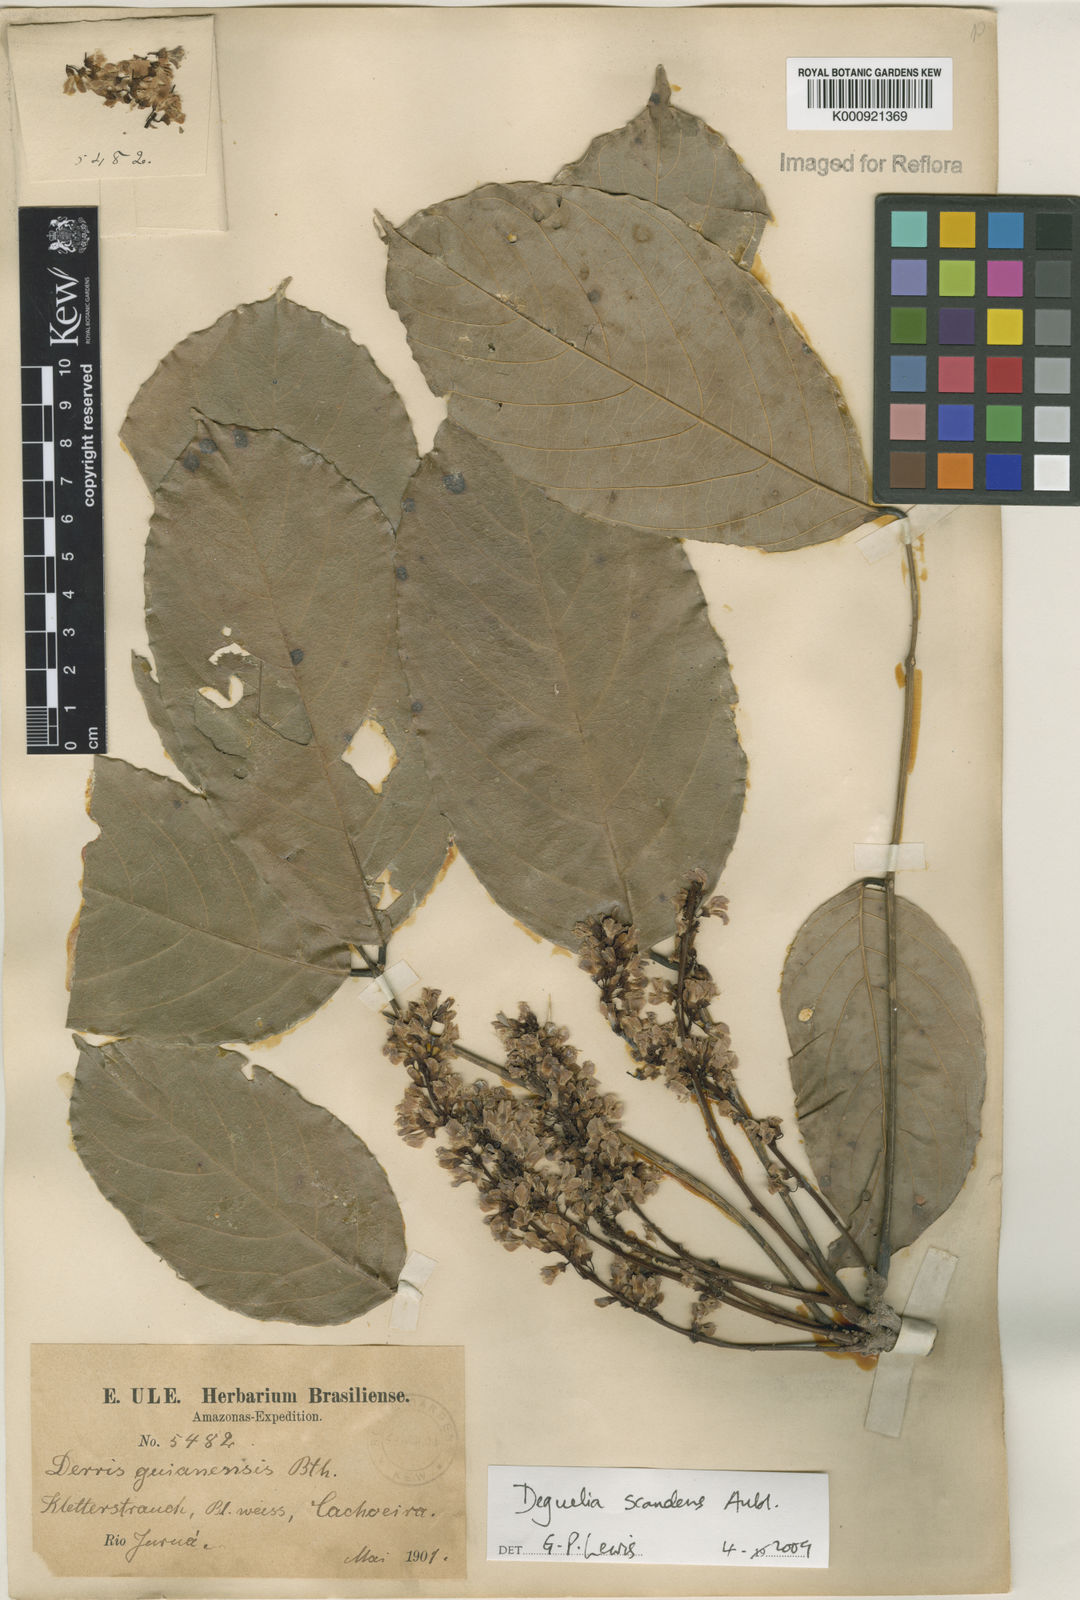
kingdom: Plantae
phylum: Tracheophyta
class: Magnoliopsida
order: Fabales
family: Fabaceae
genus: Deguelia
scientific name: Deguelia scandens
